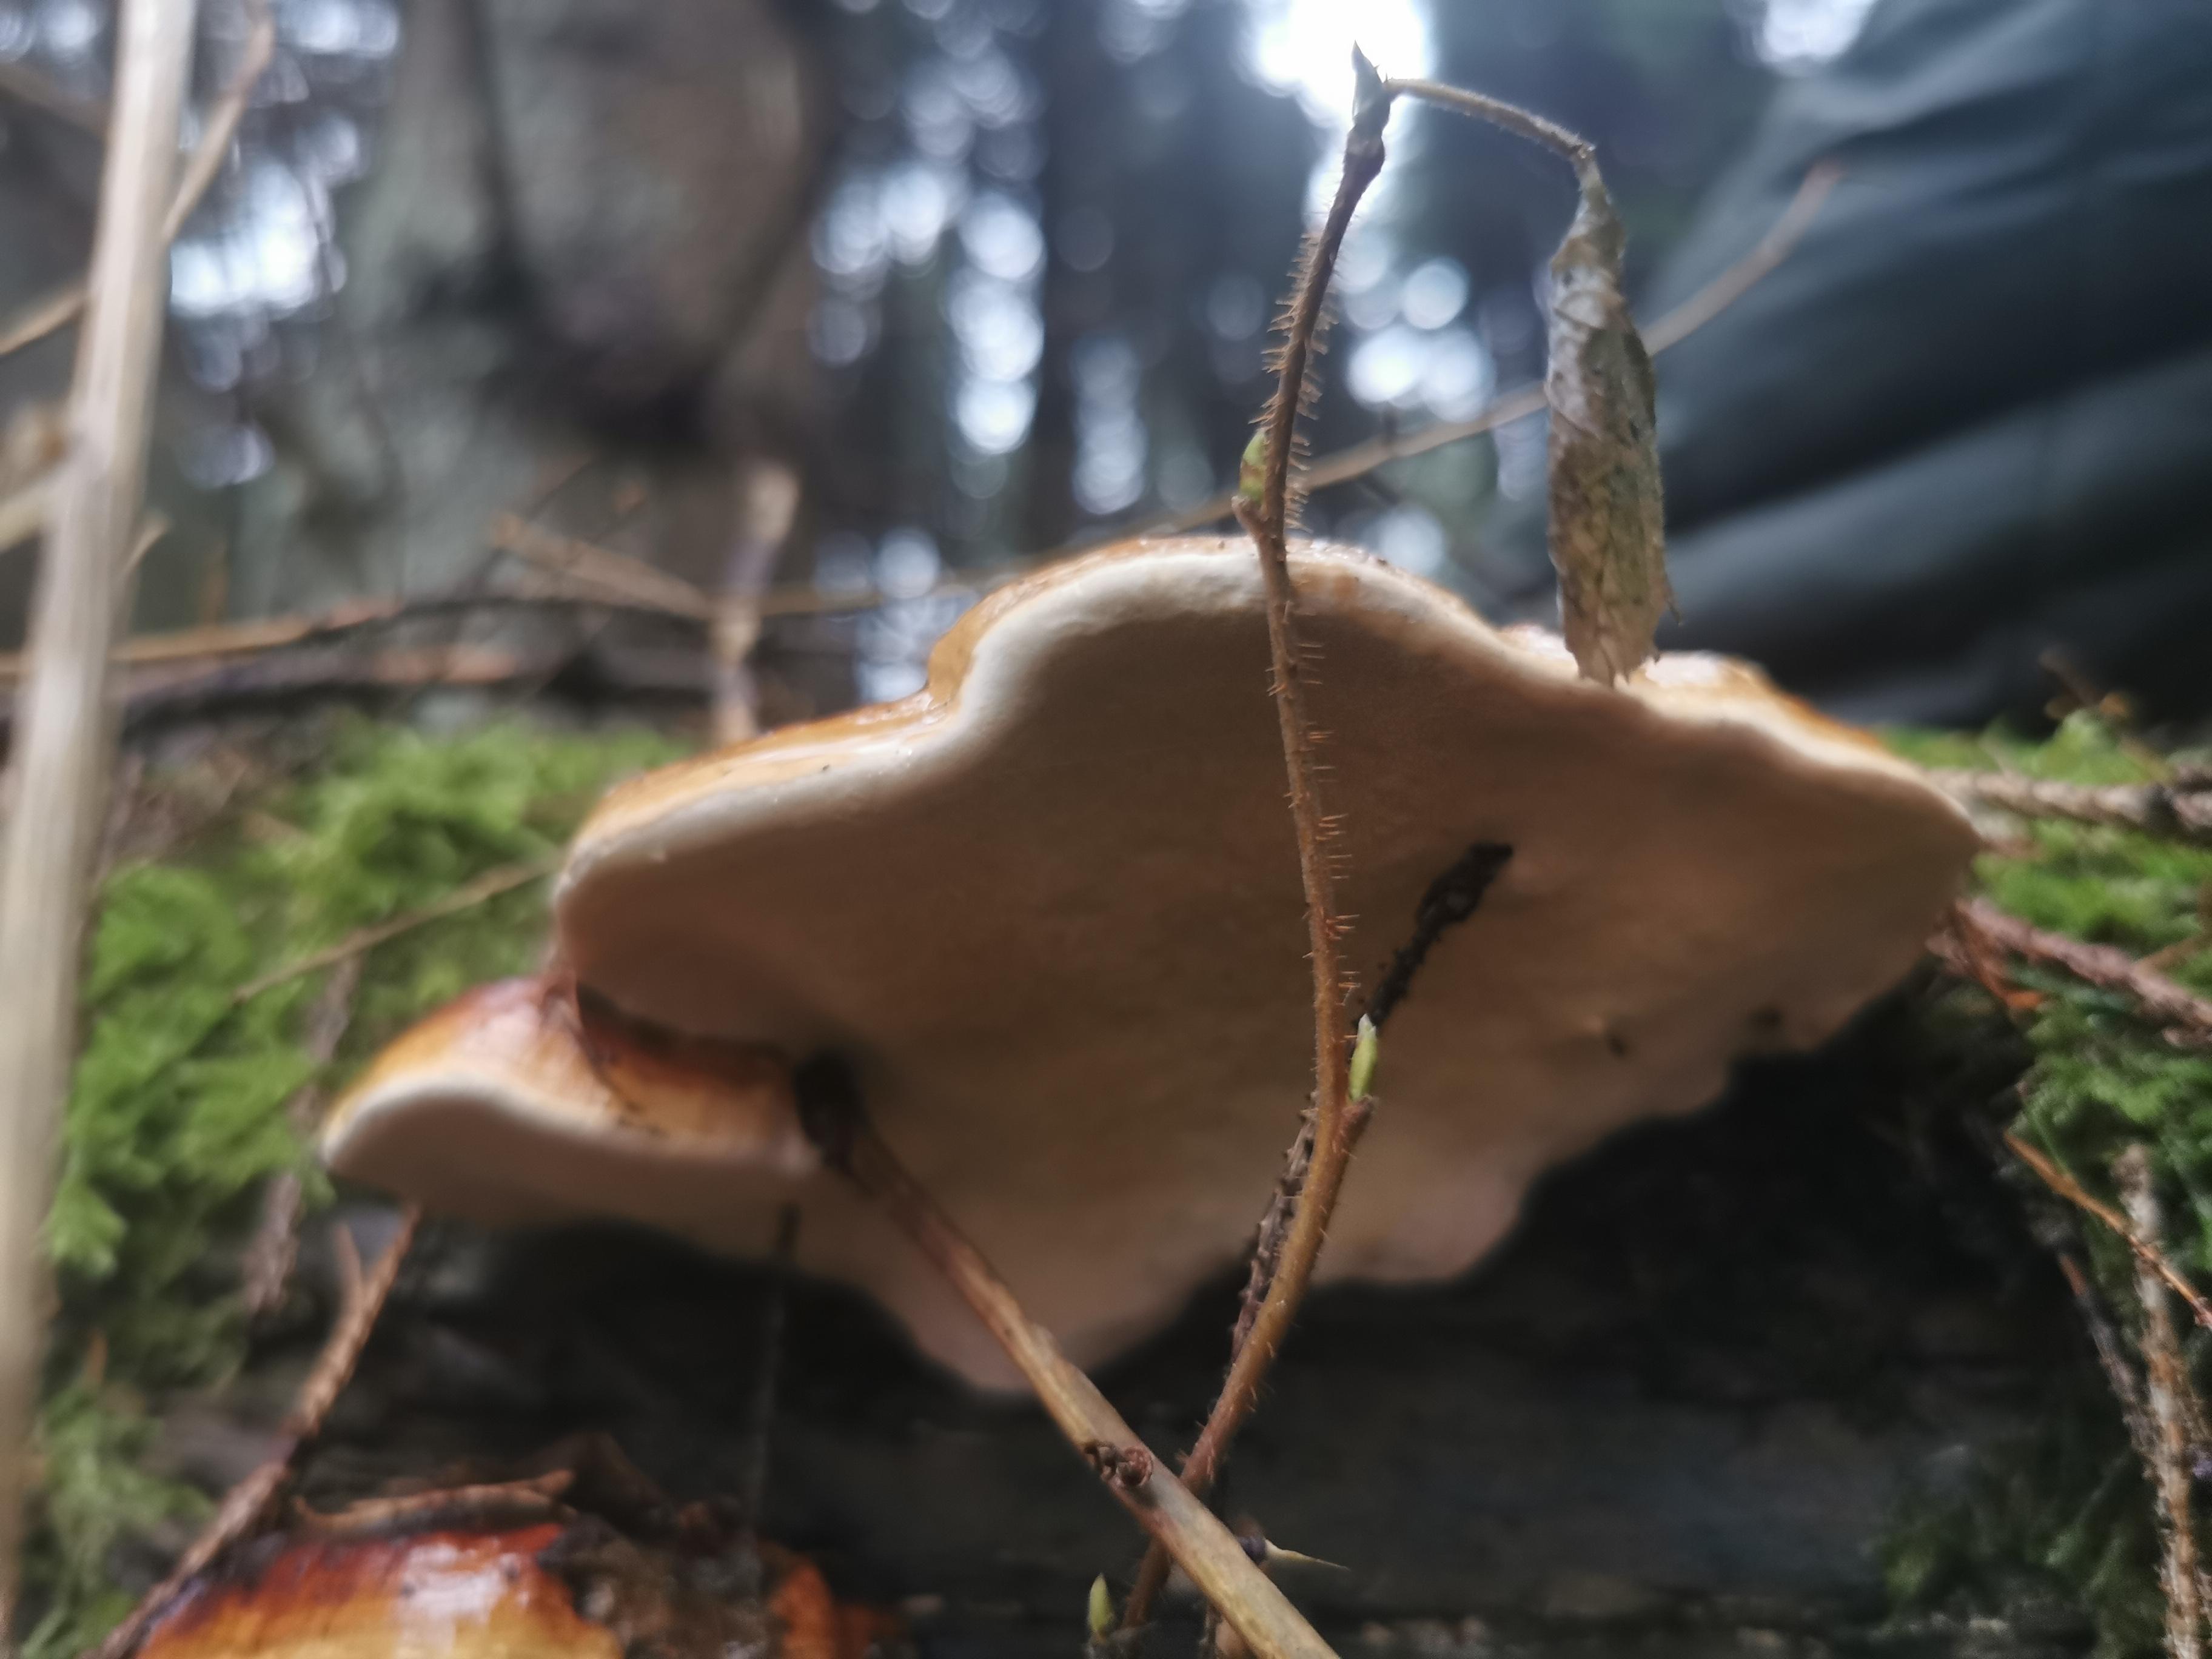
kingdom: Fungi
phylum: Basidiomycota
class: Agaricomycetes
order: Polyporales
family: Fomitopsidaceae
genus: Fomitopsis
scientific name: Fomitopsis pinicola
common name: randbæltet hovporesvamp
